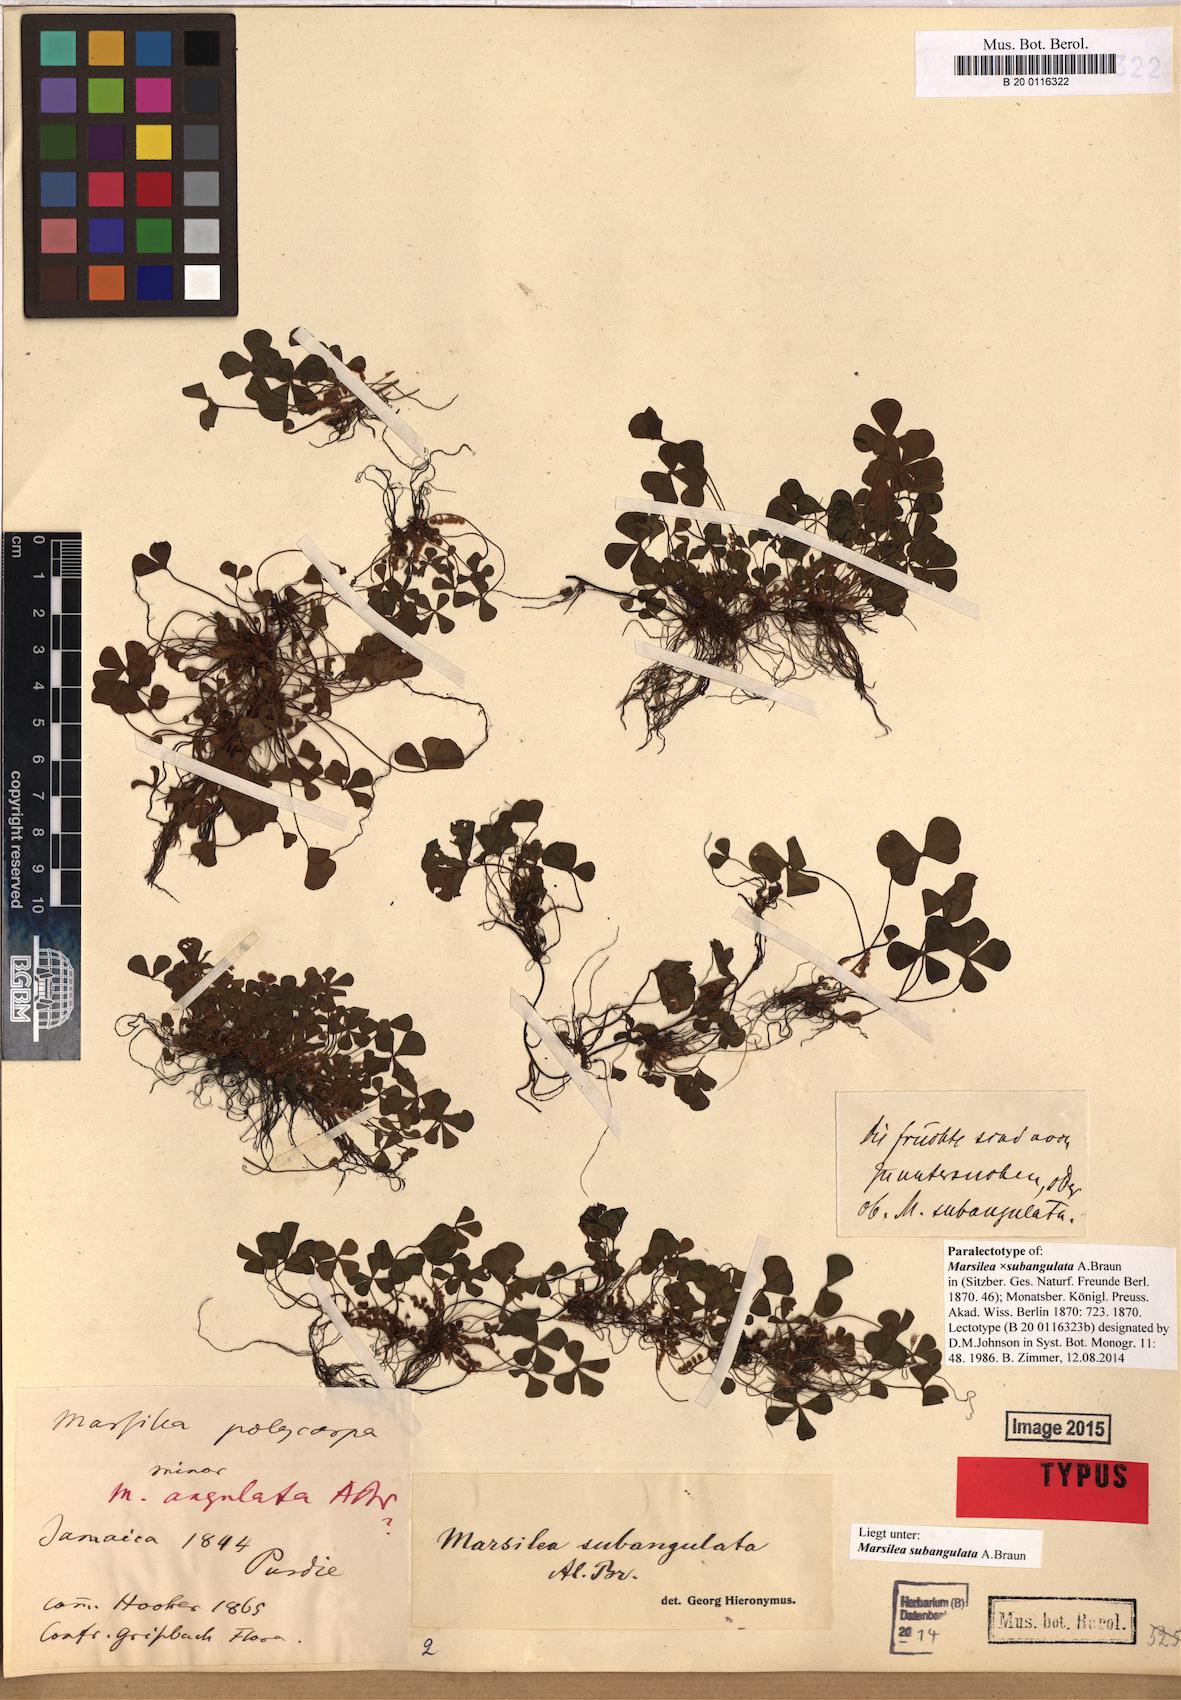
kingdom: Plantae
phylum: Tracheophyta
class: Polypodiopsida
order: Salviniales
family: Marsileaceae
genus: Marsilea
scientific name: Marsilea subangulata
